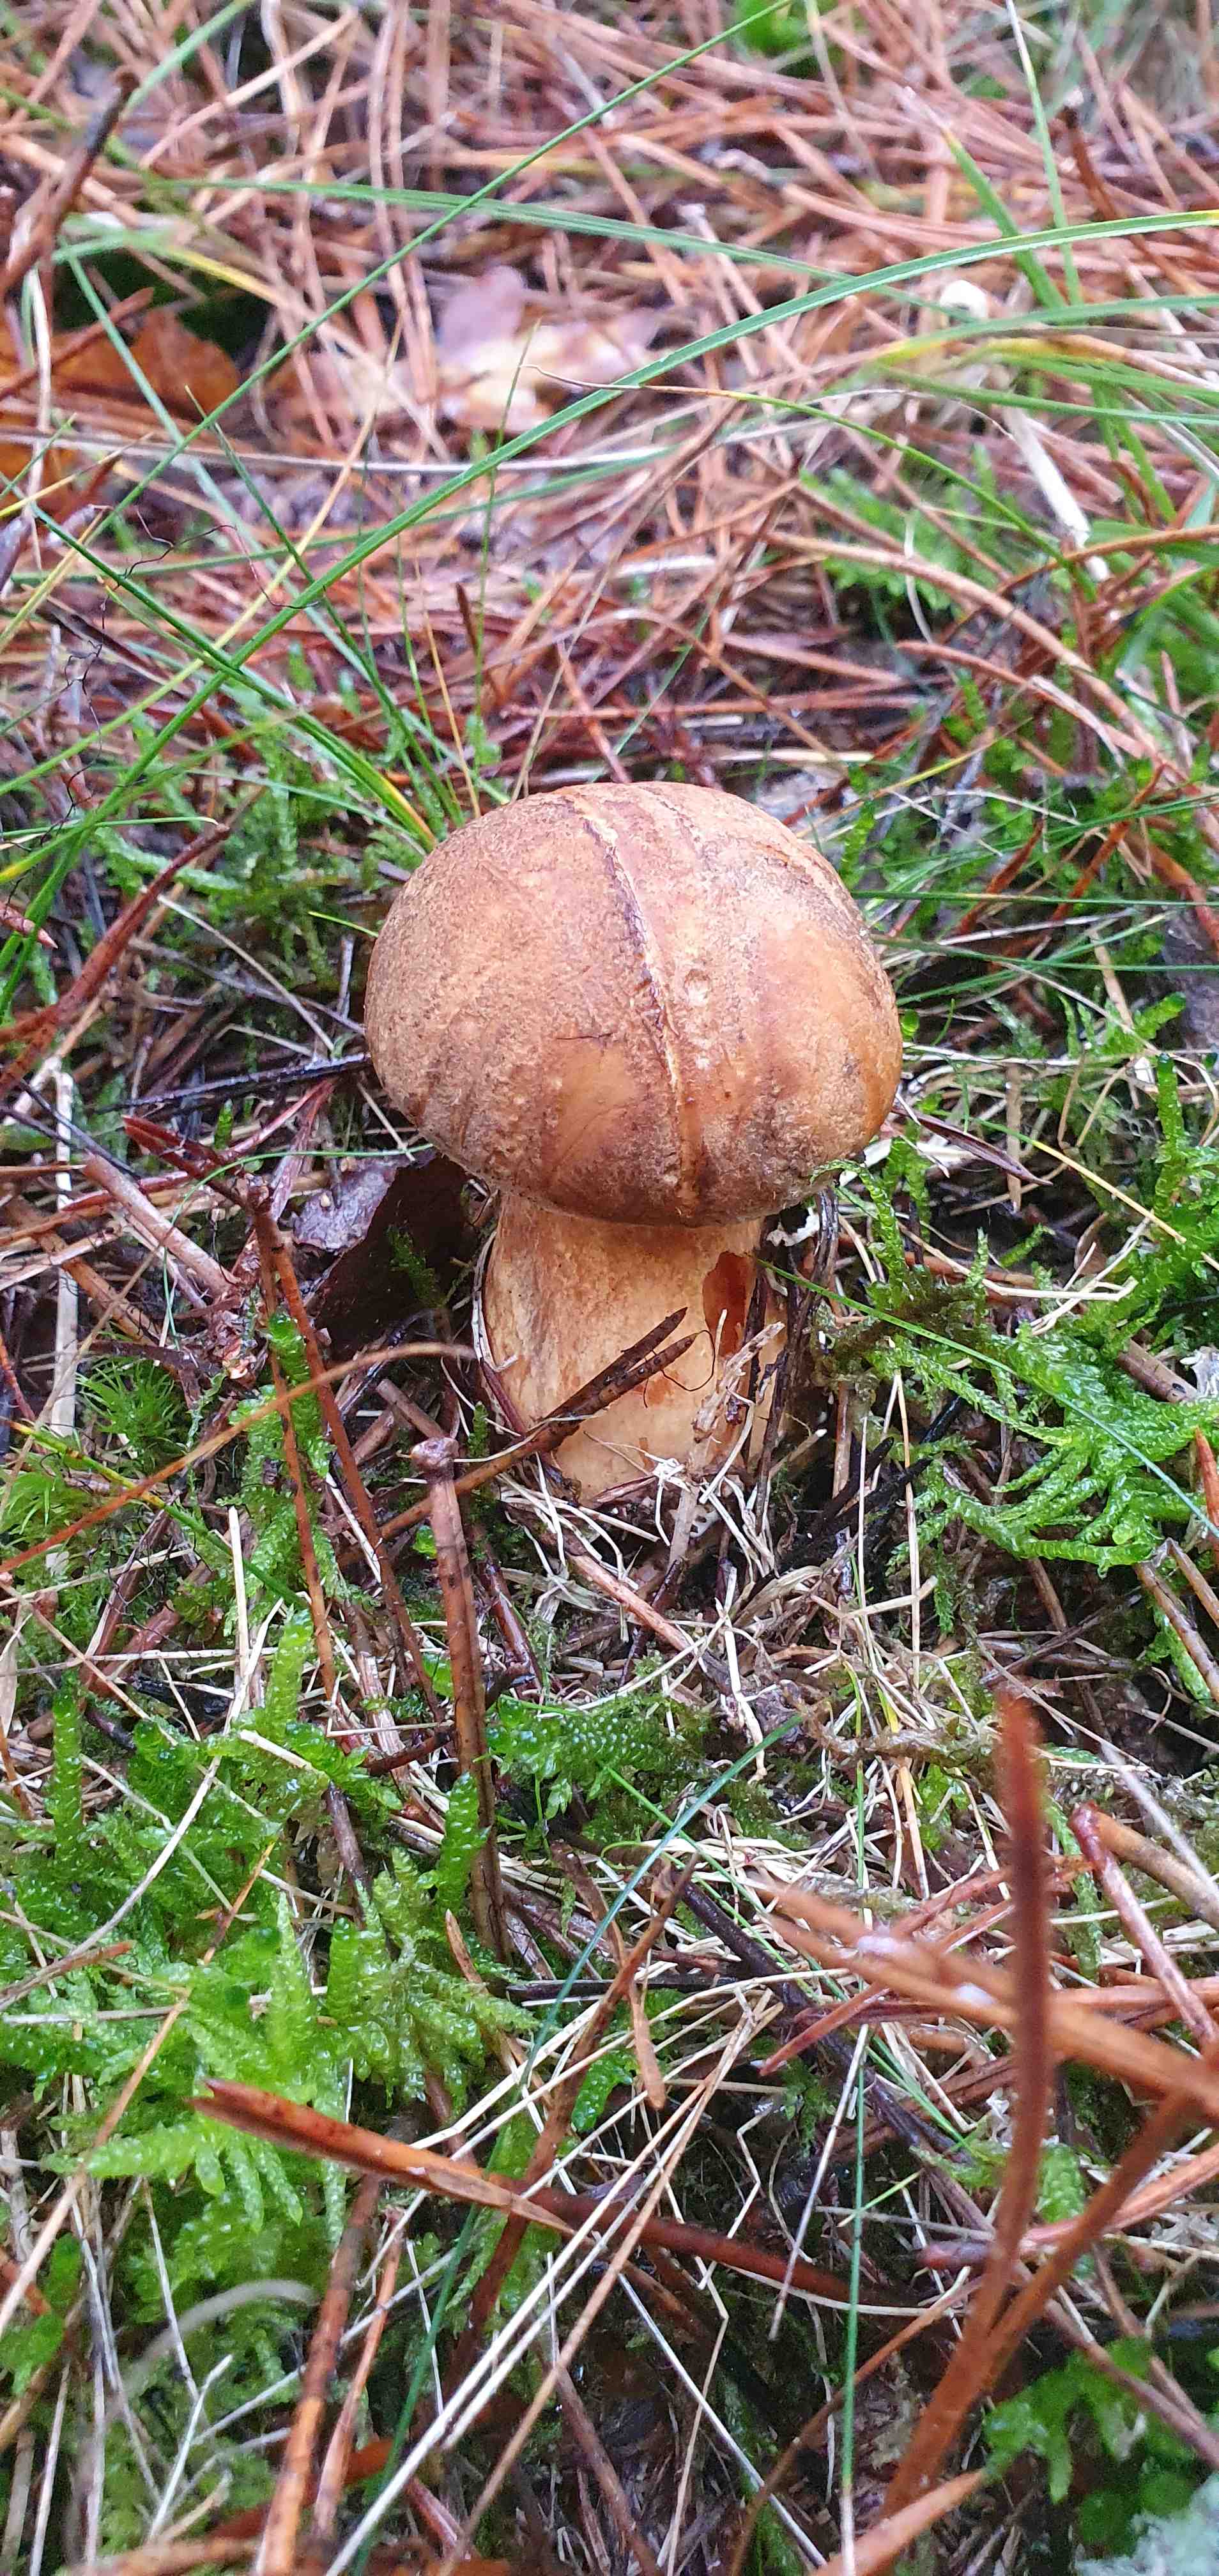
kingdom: Fungi
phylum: Basidiomycota
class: Agaricomycetes
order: Boletales
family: Suillaceae
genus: Suillus
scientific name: Suillus variegatus
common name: broget slimrørhat
